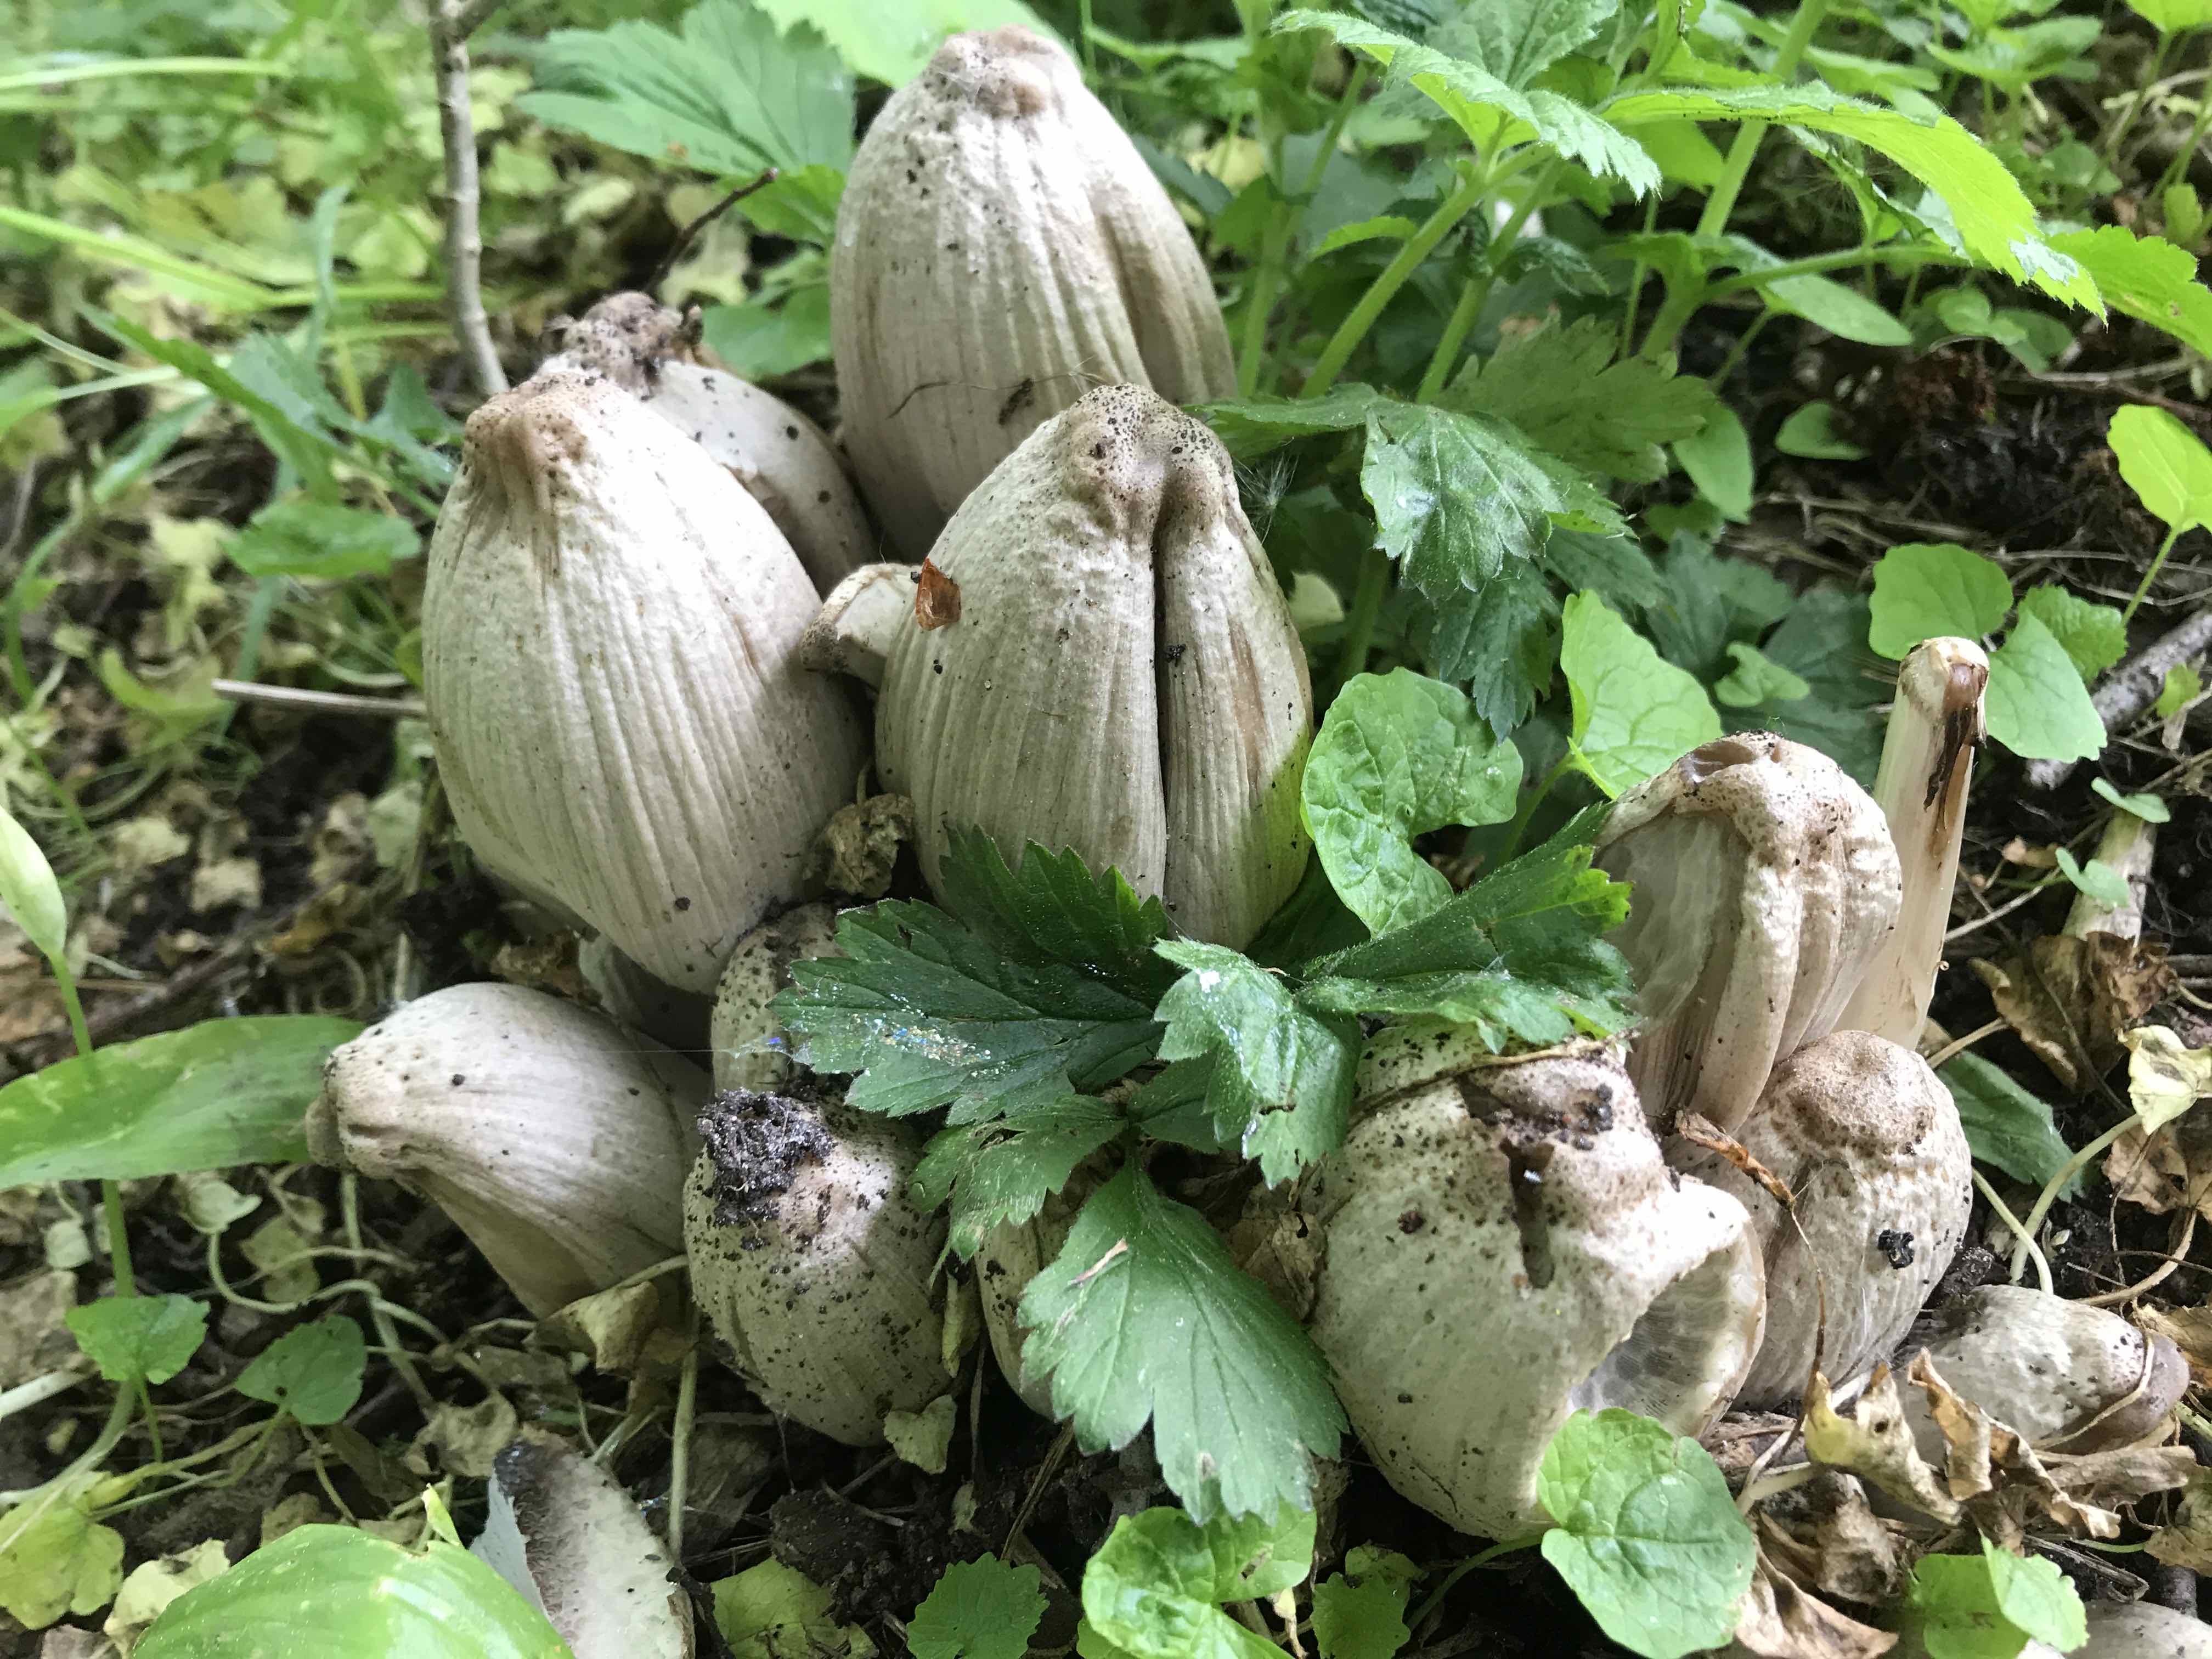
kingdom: Fungi
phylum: Basidiomycota
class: Agaricomycetes
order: Agaricales
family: Psathyrellaceae
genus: Coprinopsis
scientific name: Coprinopsis atramentaria
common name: almindelig blækhat
